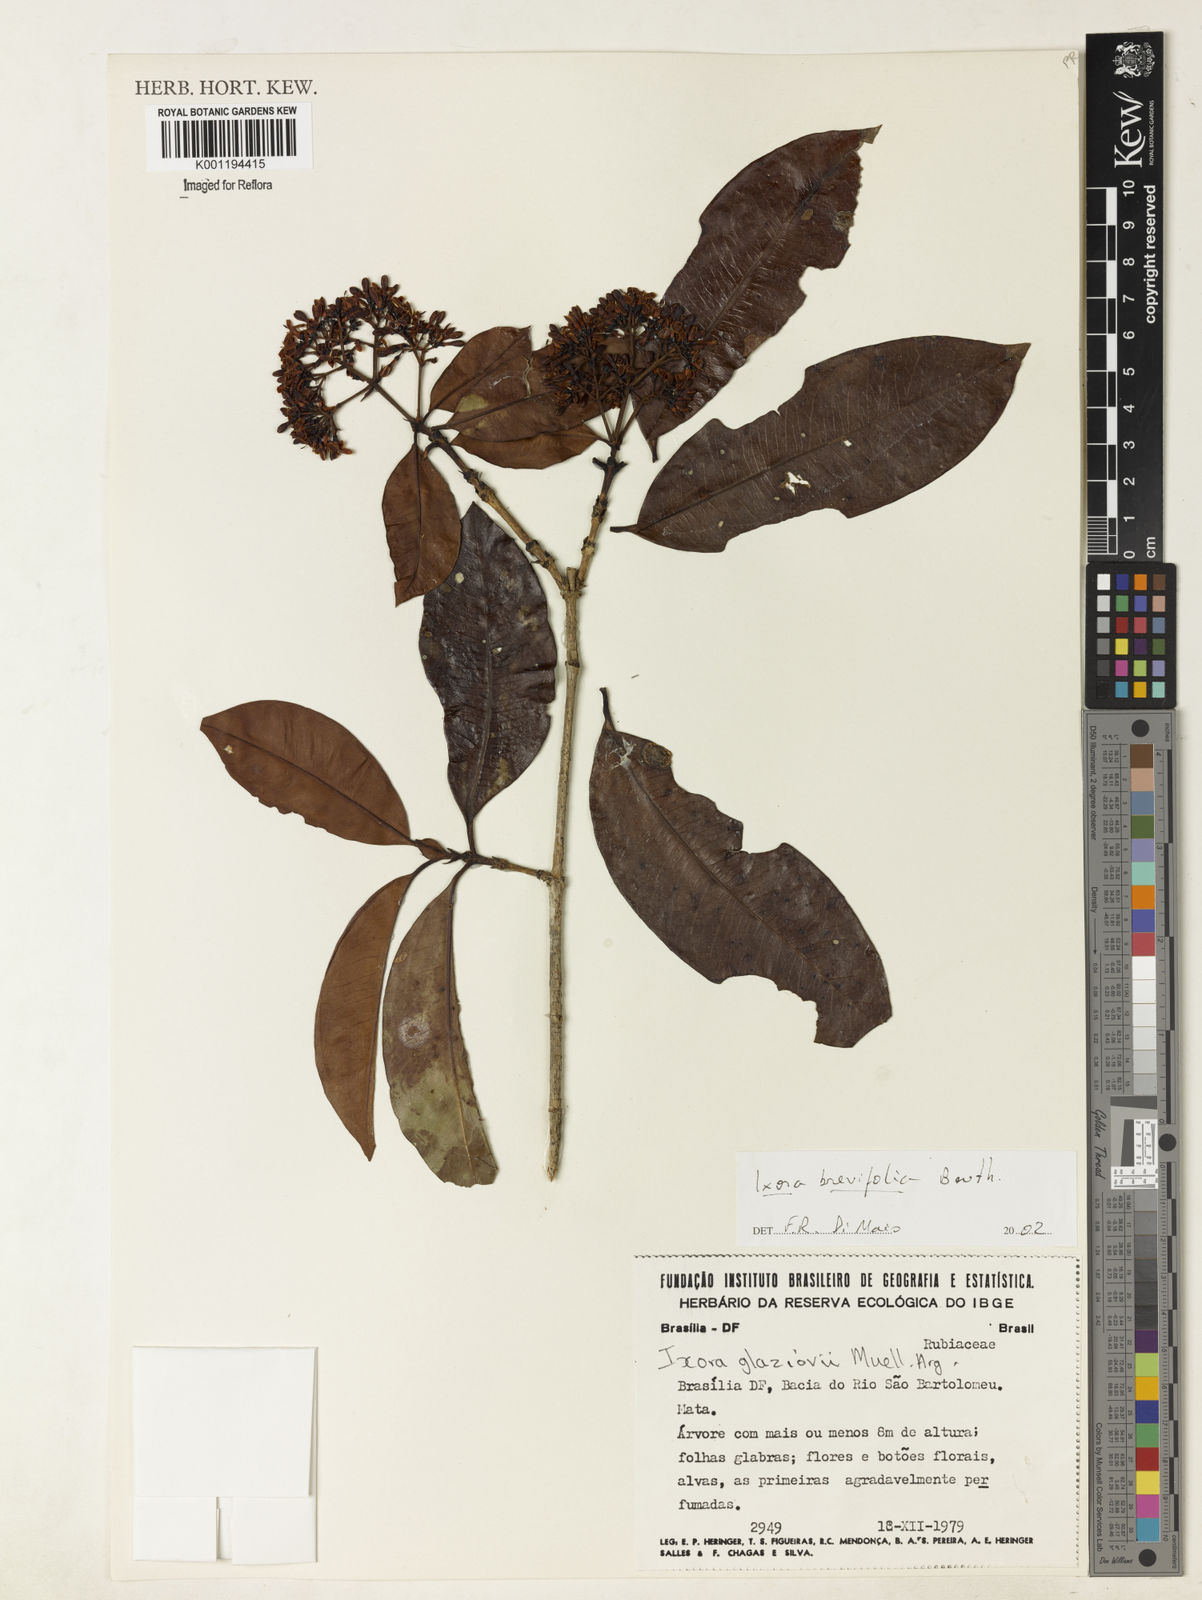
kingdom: Plantae
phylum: Tracheophyta
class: Magnoliopsida
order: Gentianales
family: Rubiaceae
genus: Ixora
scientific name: Ixora brevifolia
